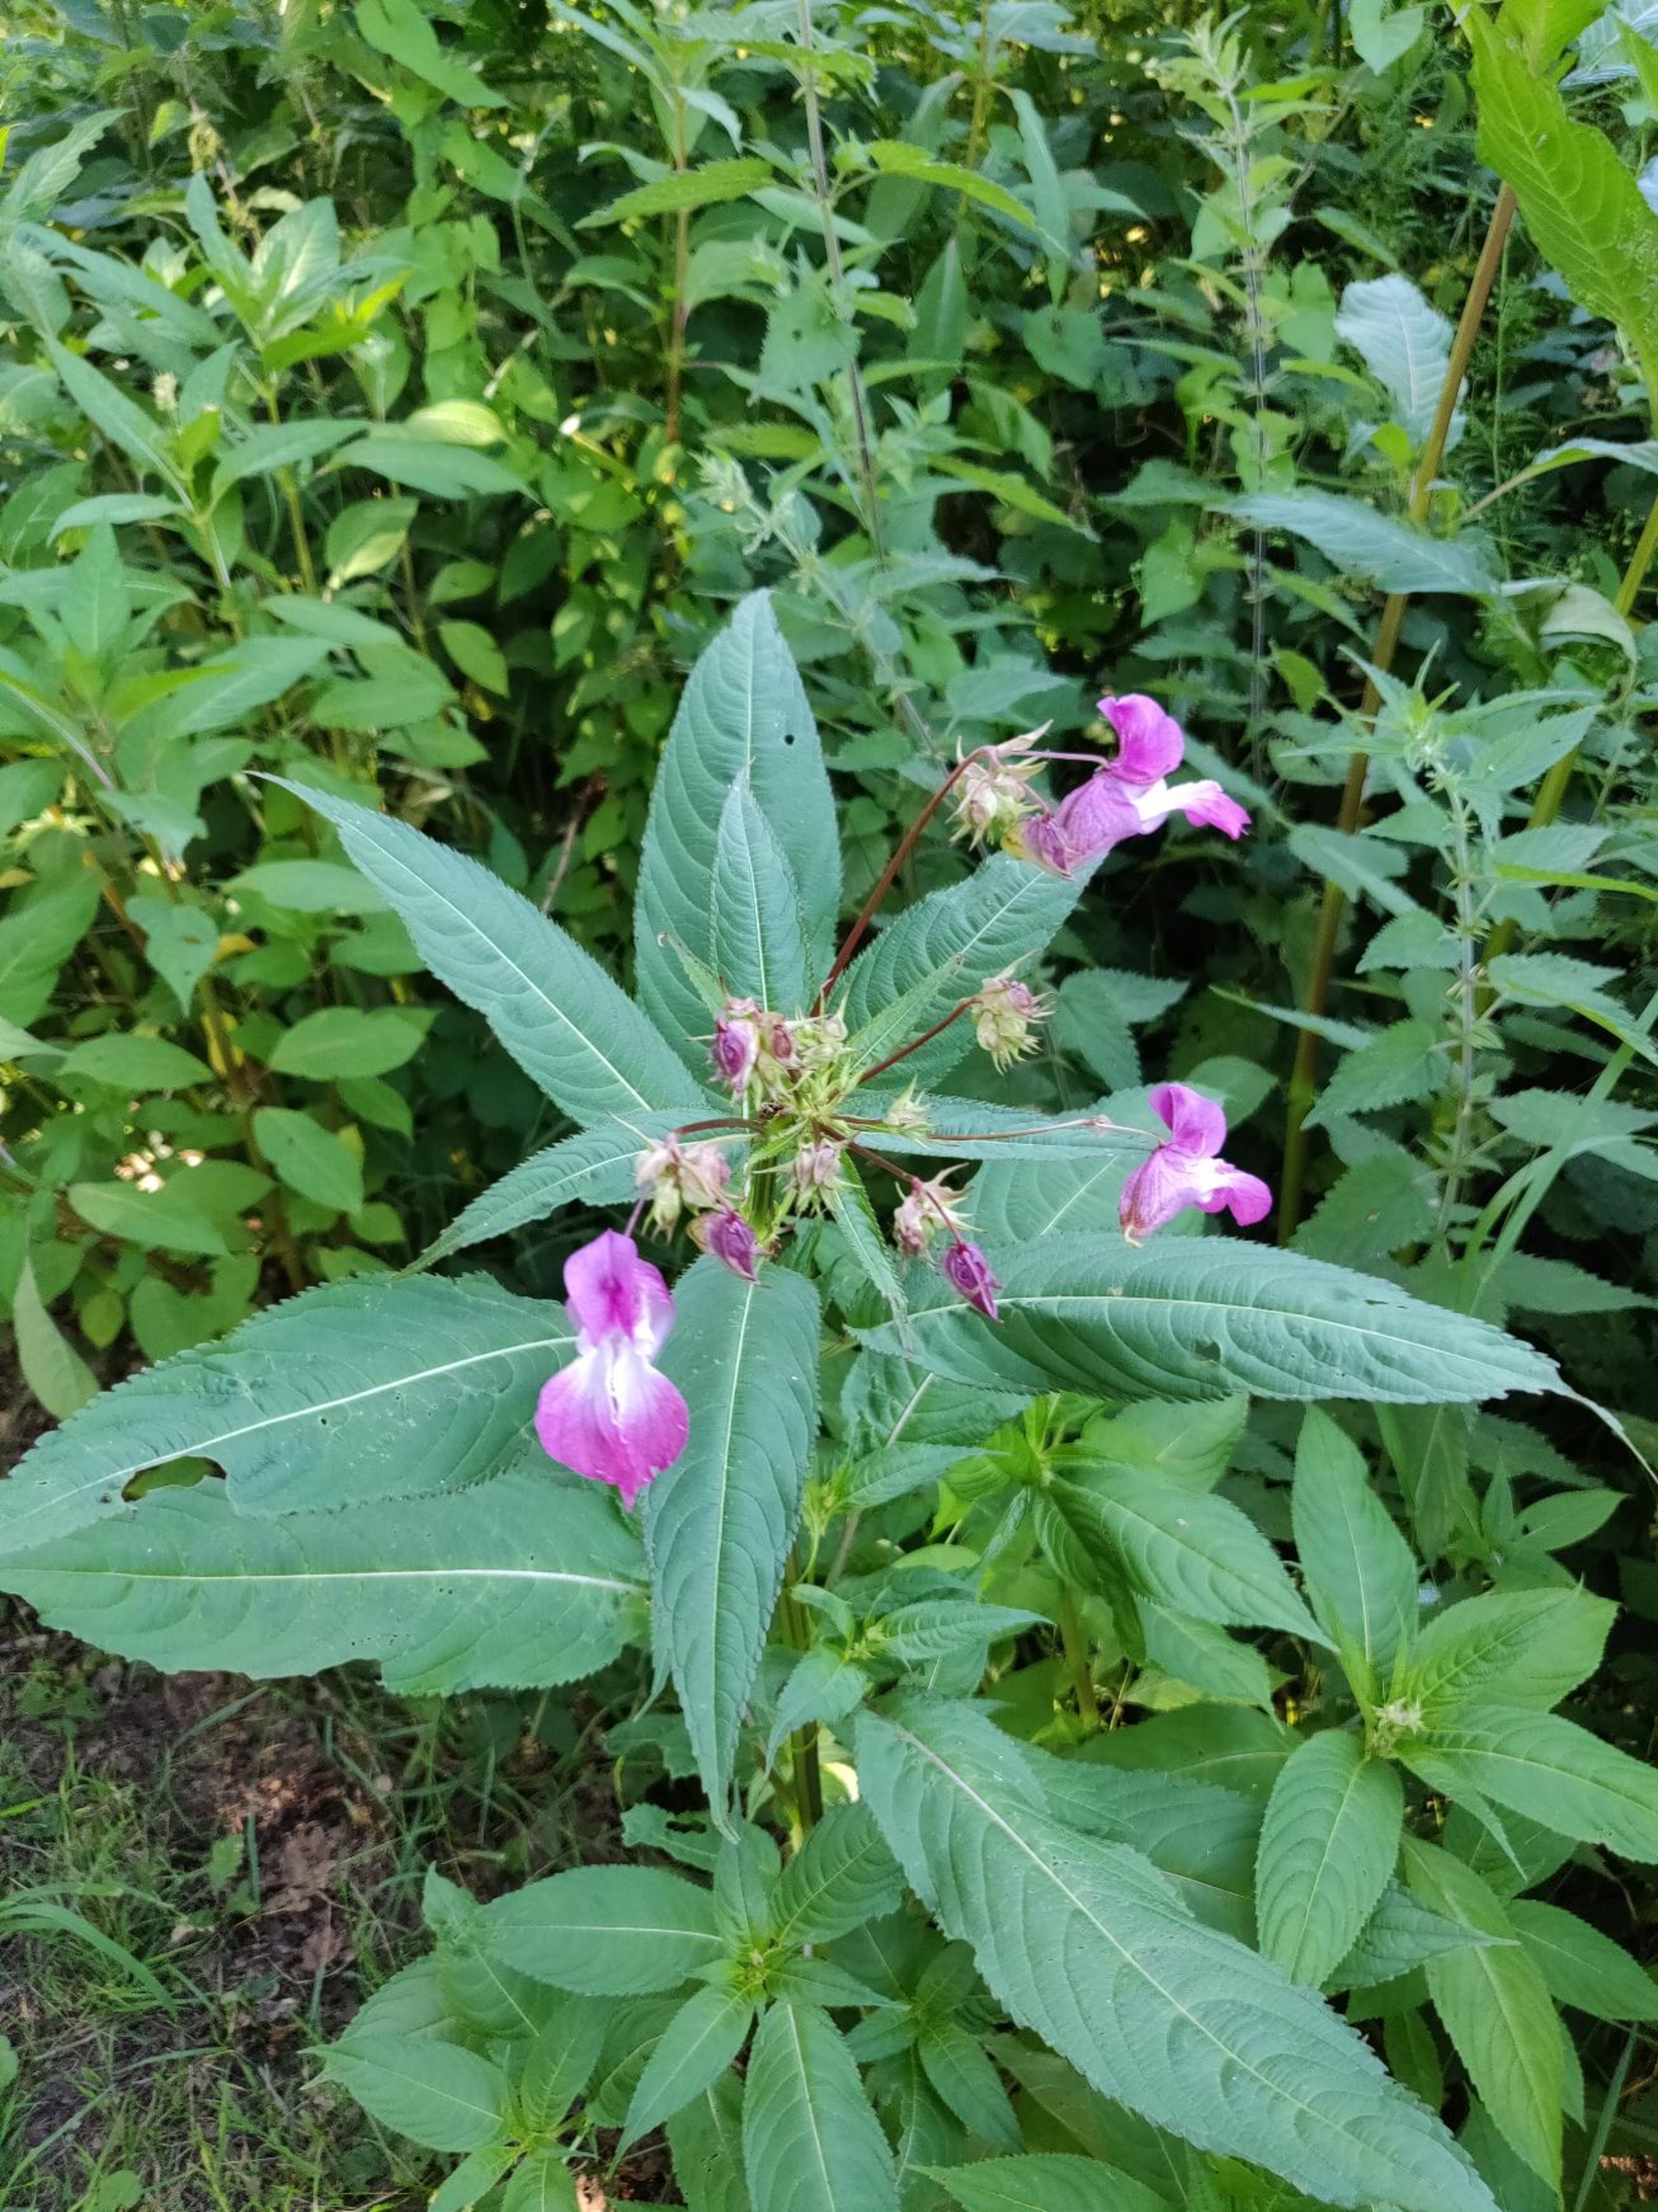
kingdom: Plantae
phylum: Tracheophyta
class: Magnoliopsida
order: Ericales
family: Balsaminaceae
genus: Impatiens
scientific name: Impatiens glandulifera
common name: Kæmpe-balsamin
